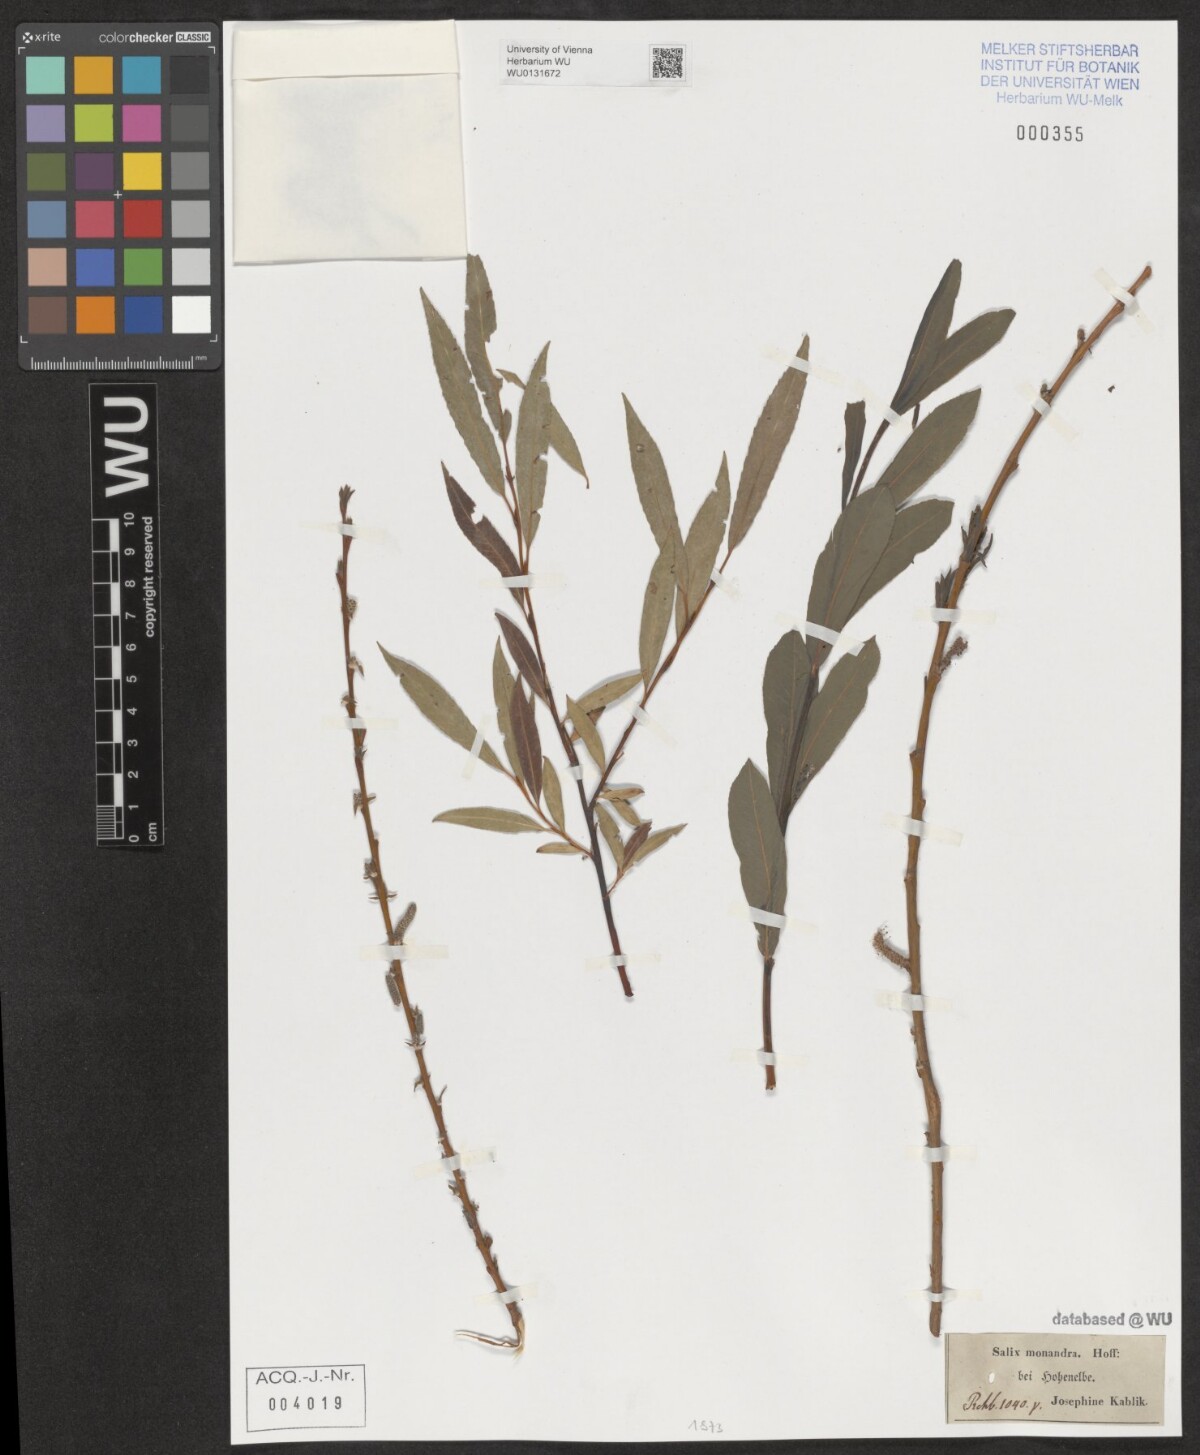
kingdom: Plantae
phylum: Tracheophyta
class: Magnoliopsida
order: Malpighiales
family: Salicaceae
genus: Salix
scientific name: Salix montana
